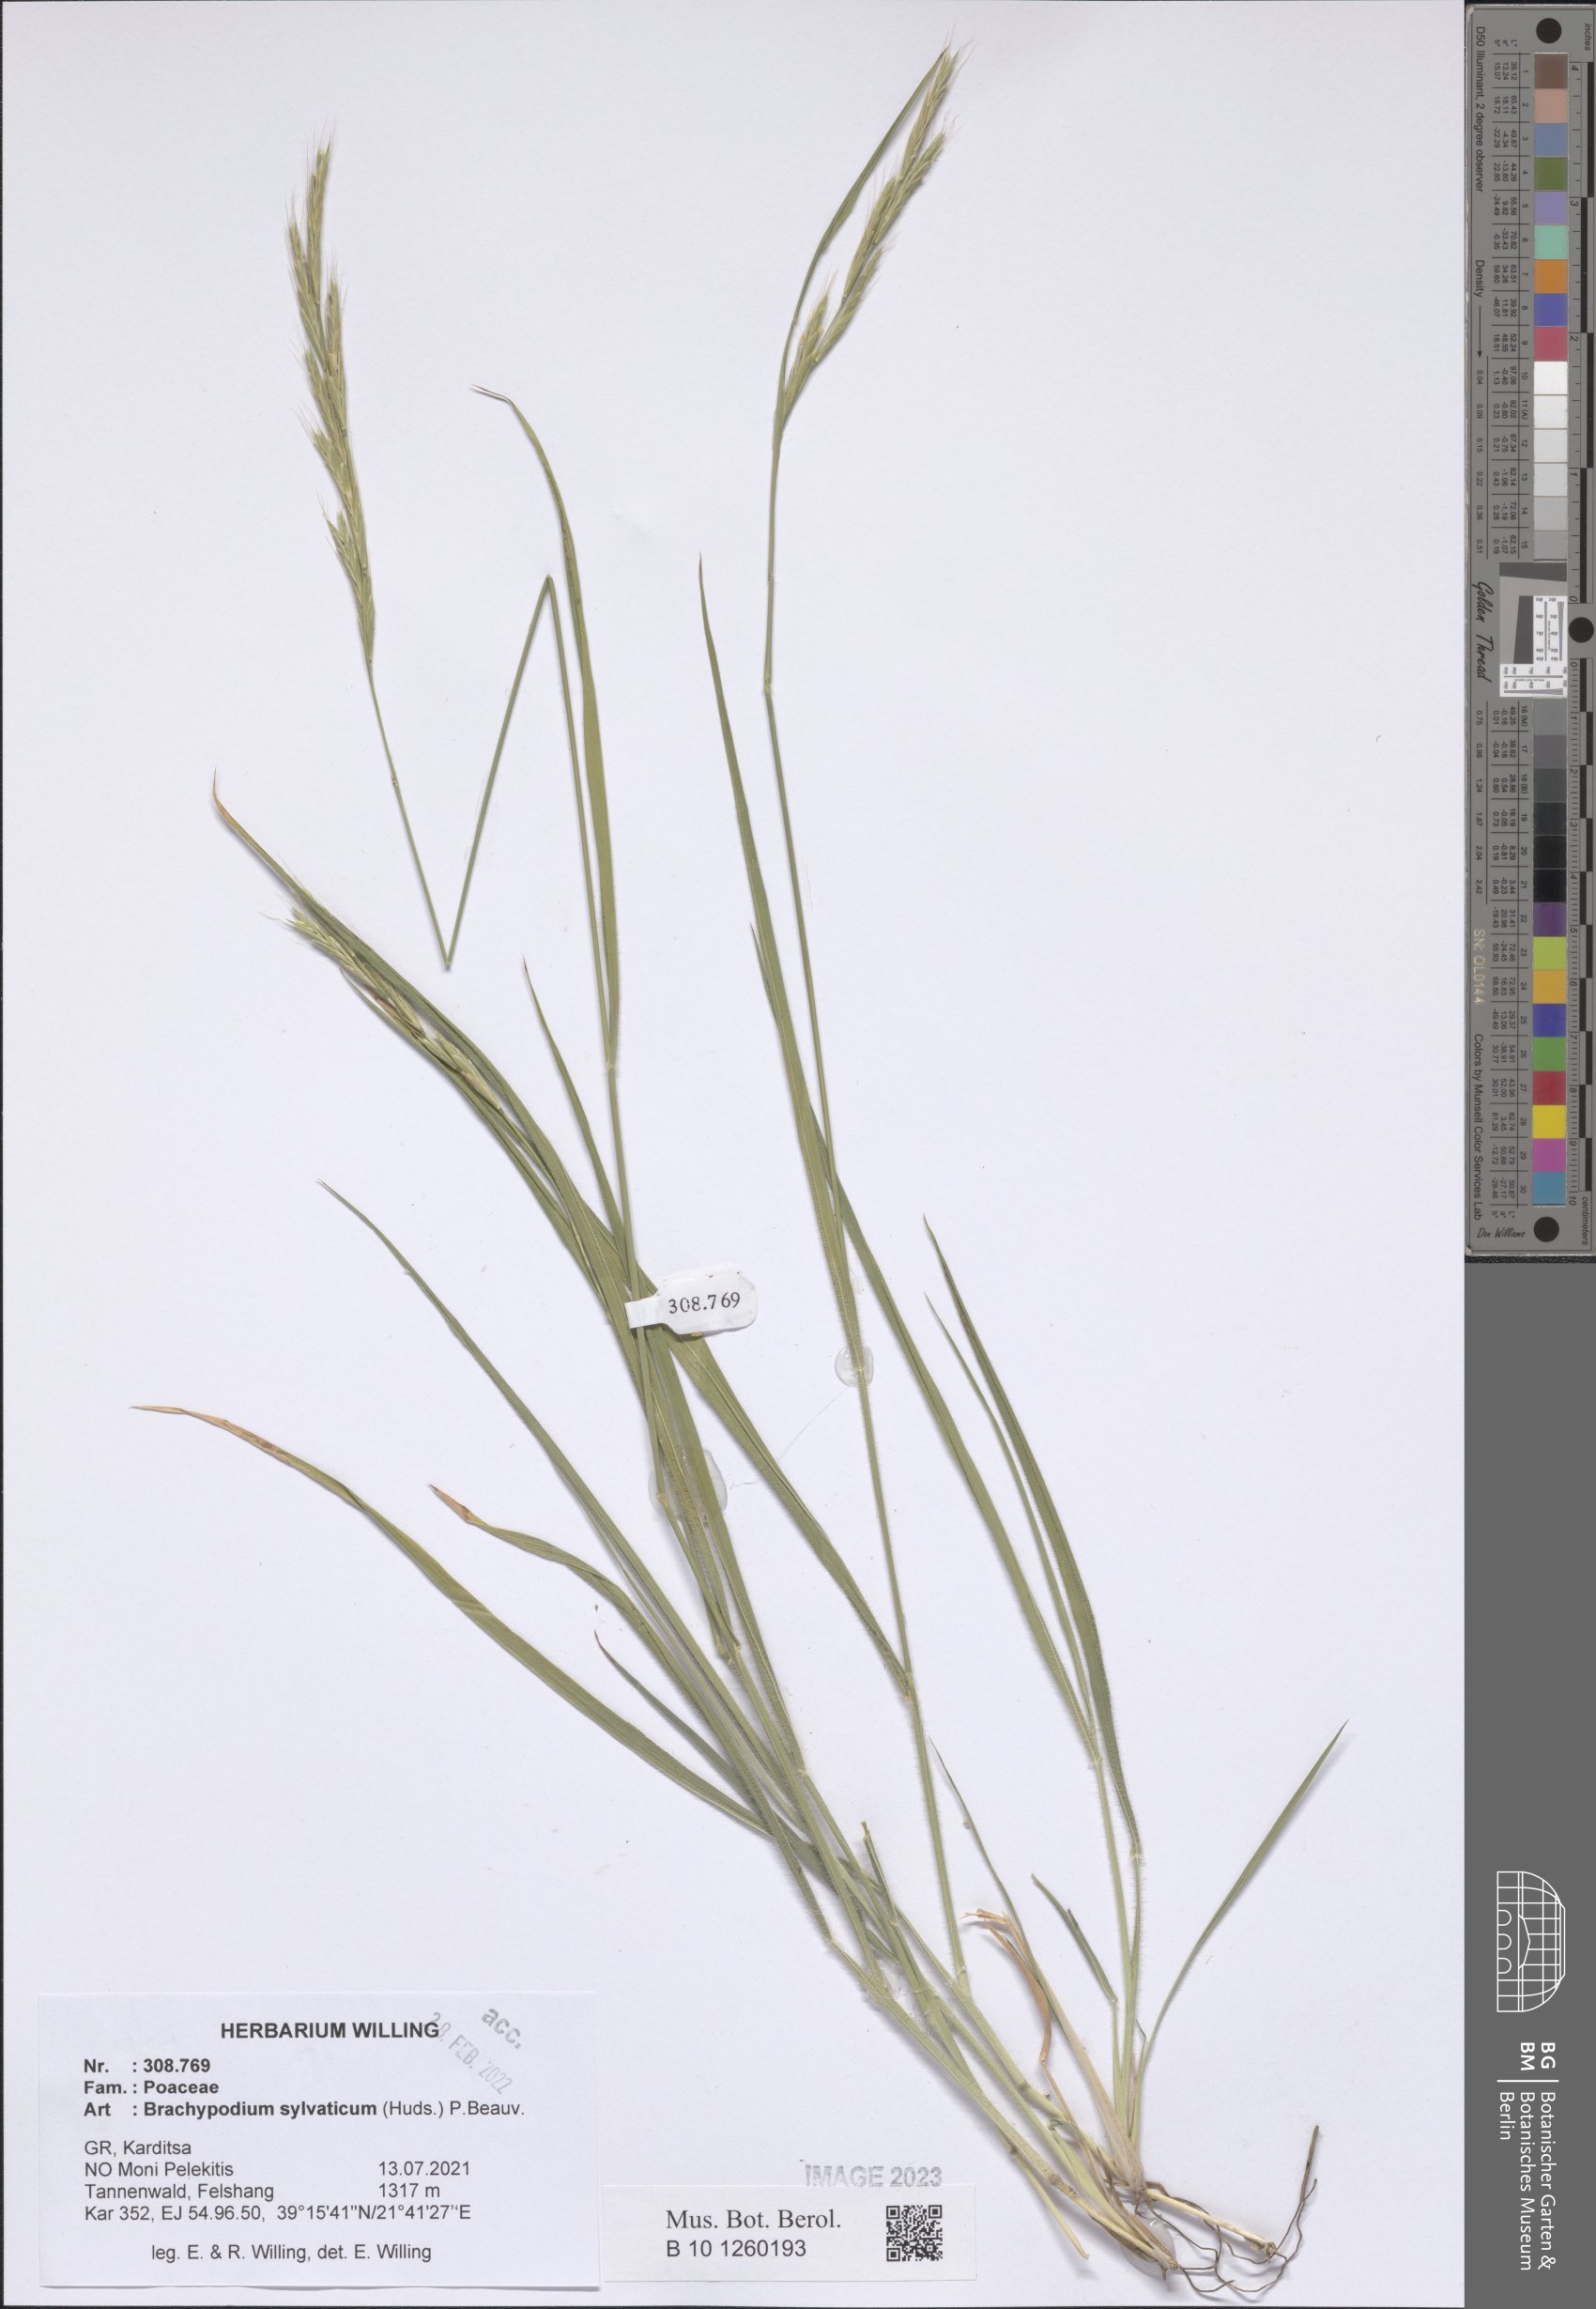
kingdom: Plantae
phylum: Tracheophyta
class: Liliopsida
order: Poales
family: Poaceae
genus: Brachypodium
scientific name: Brachypodium sylvaticum
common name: False-brome
